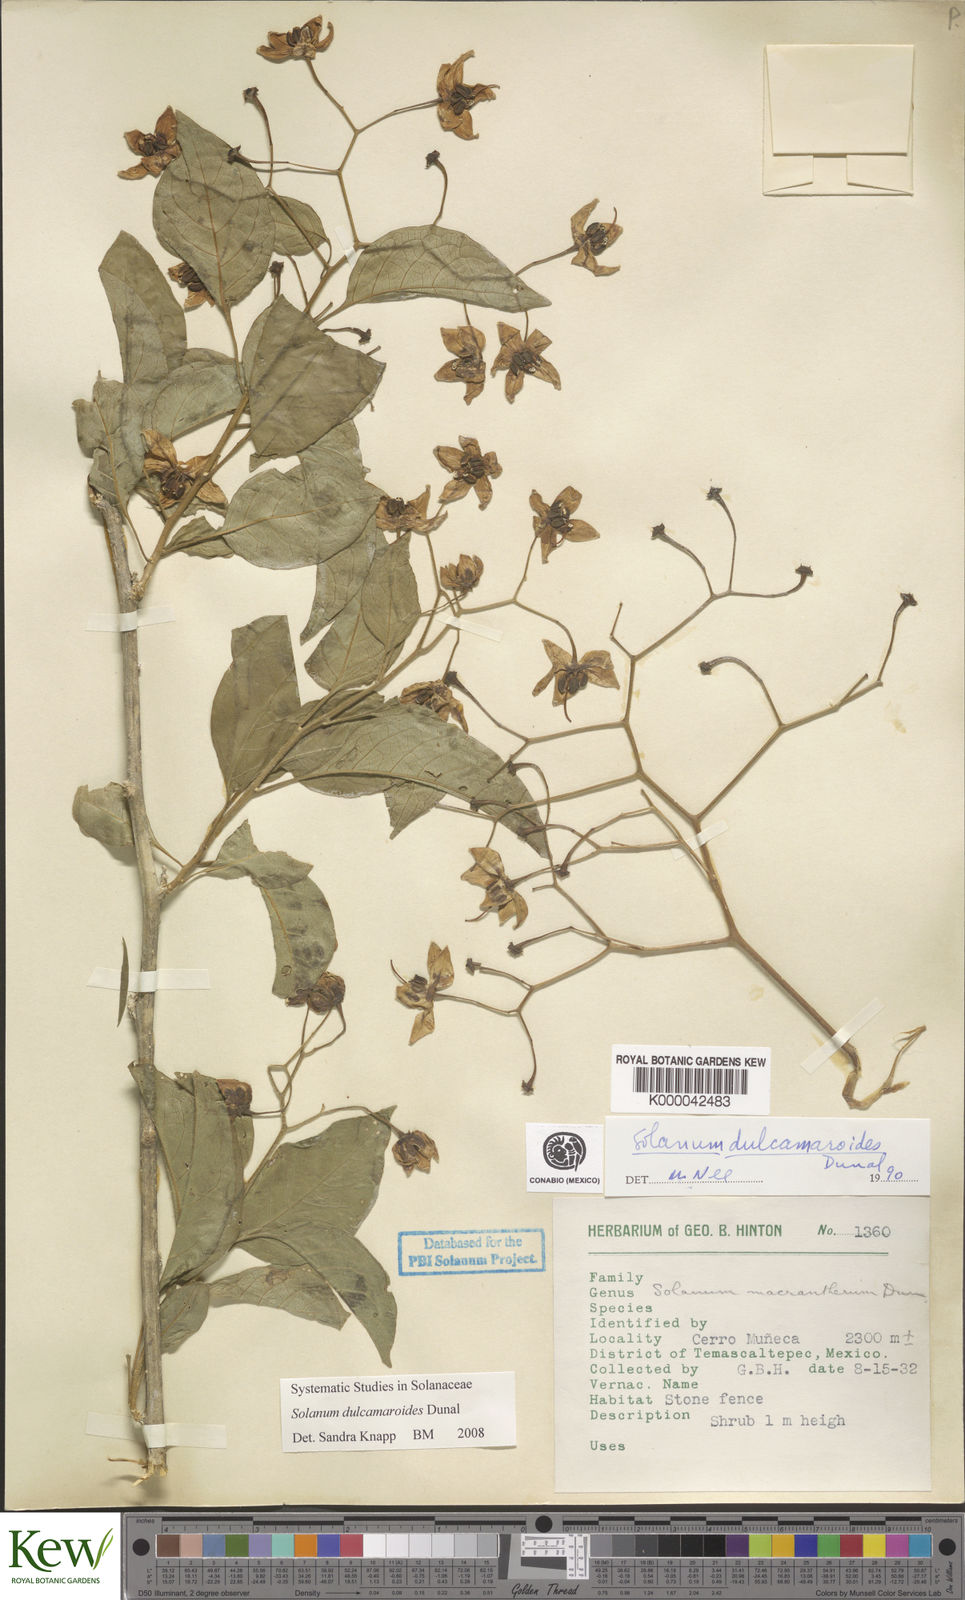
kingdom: Plantae
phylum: Tracheophyta
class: Magnoliopsida
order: Solanales
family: Solanaceae
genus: Solanum
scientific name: Solanum dulcamaroides
